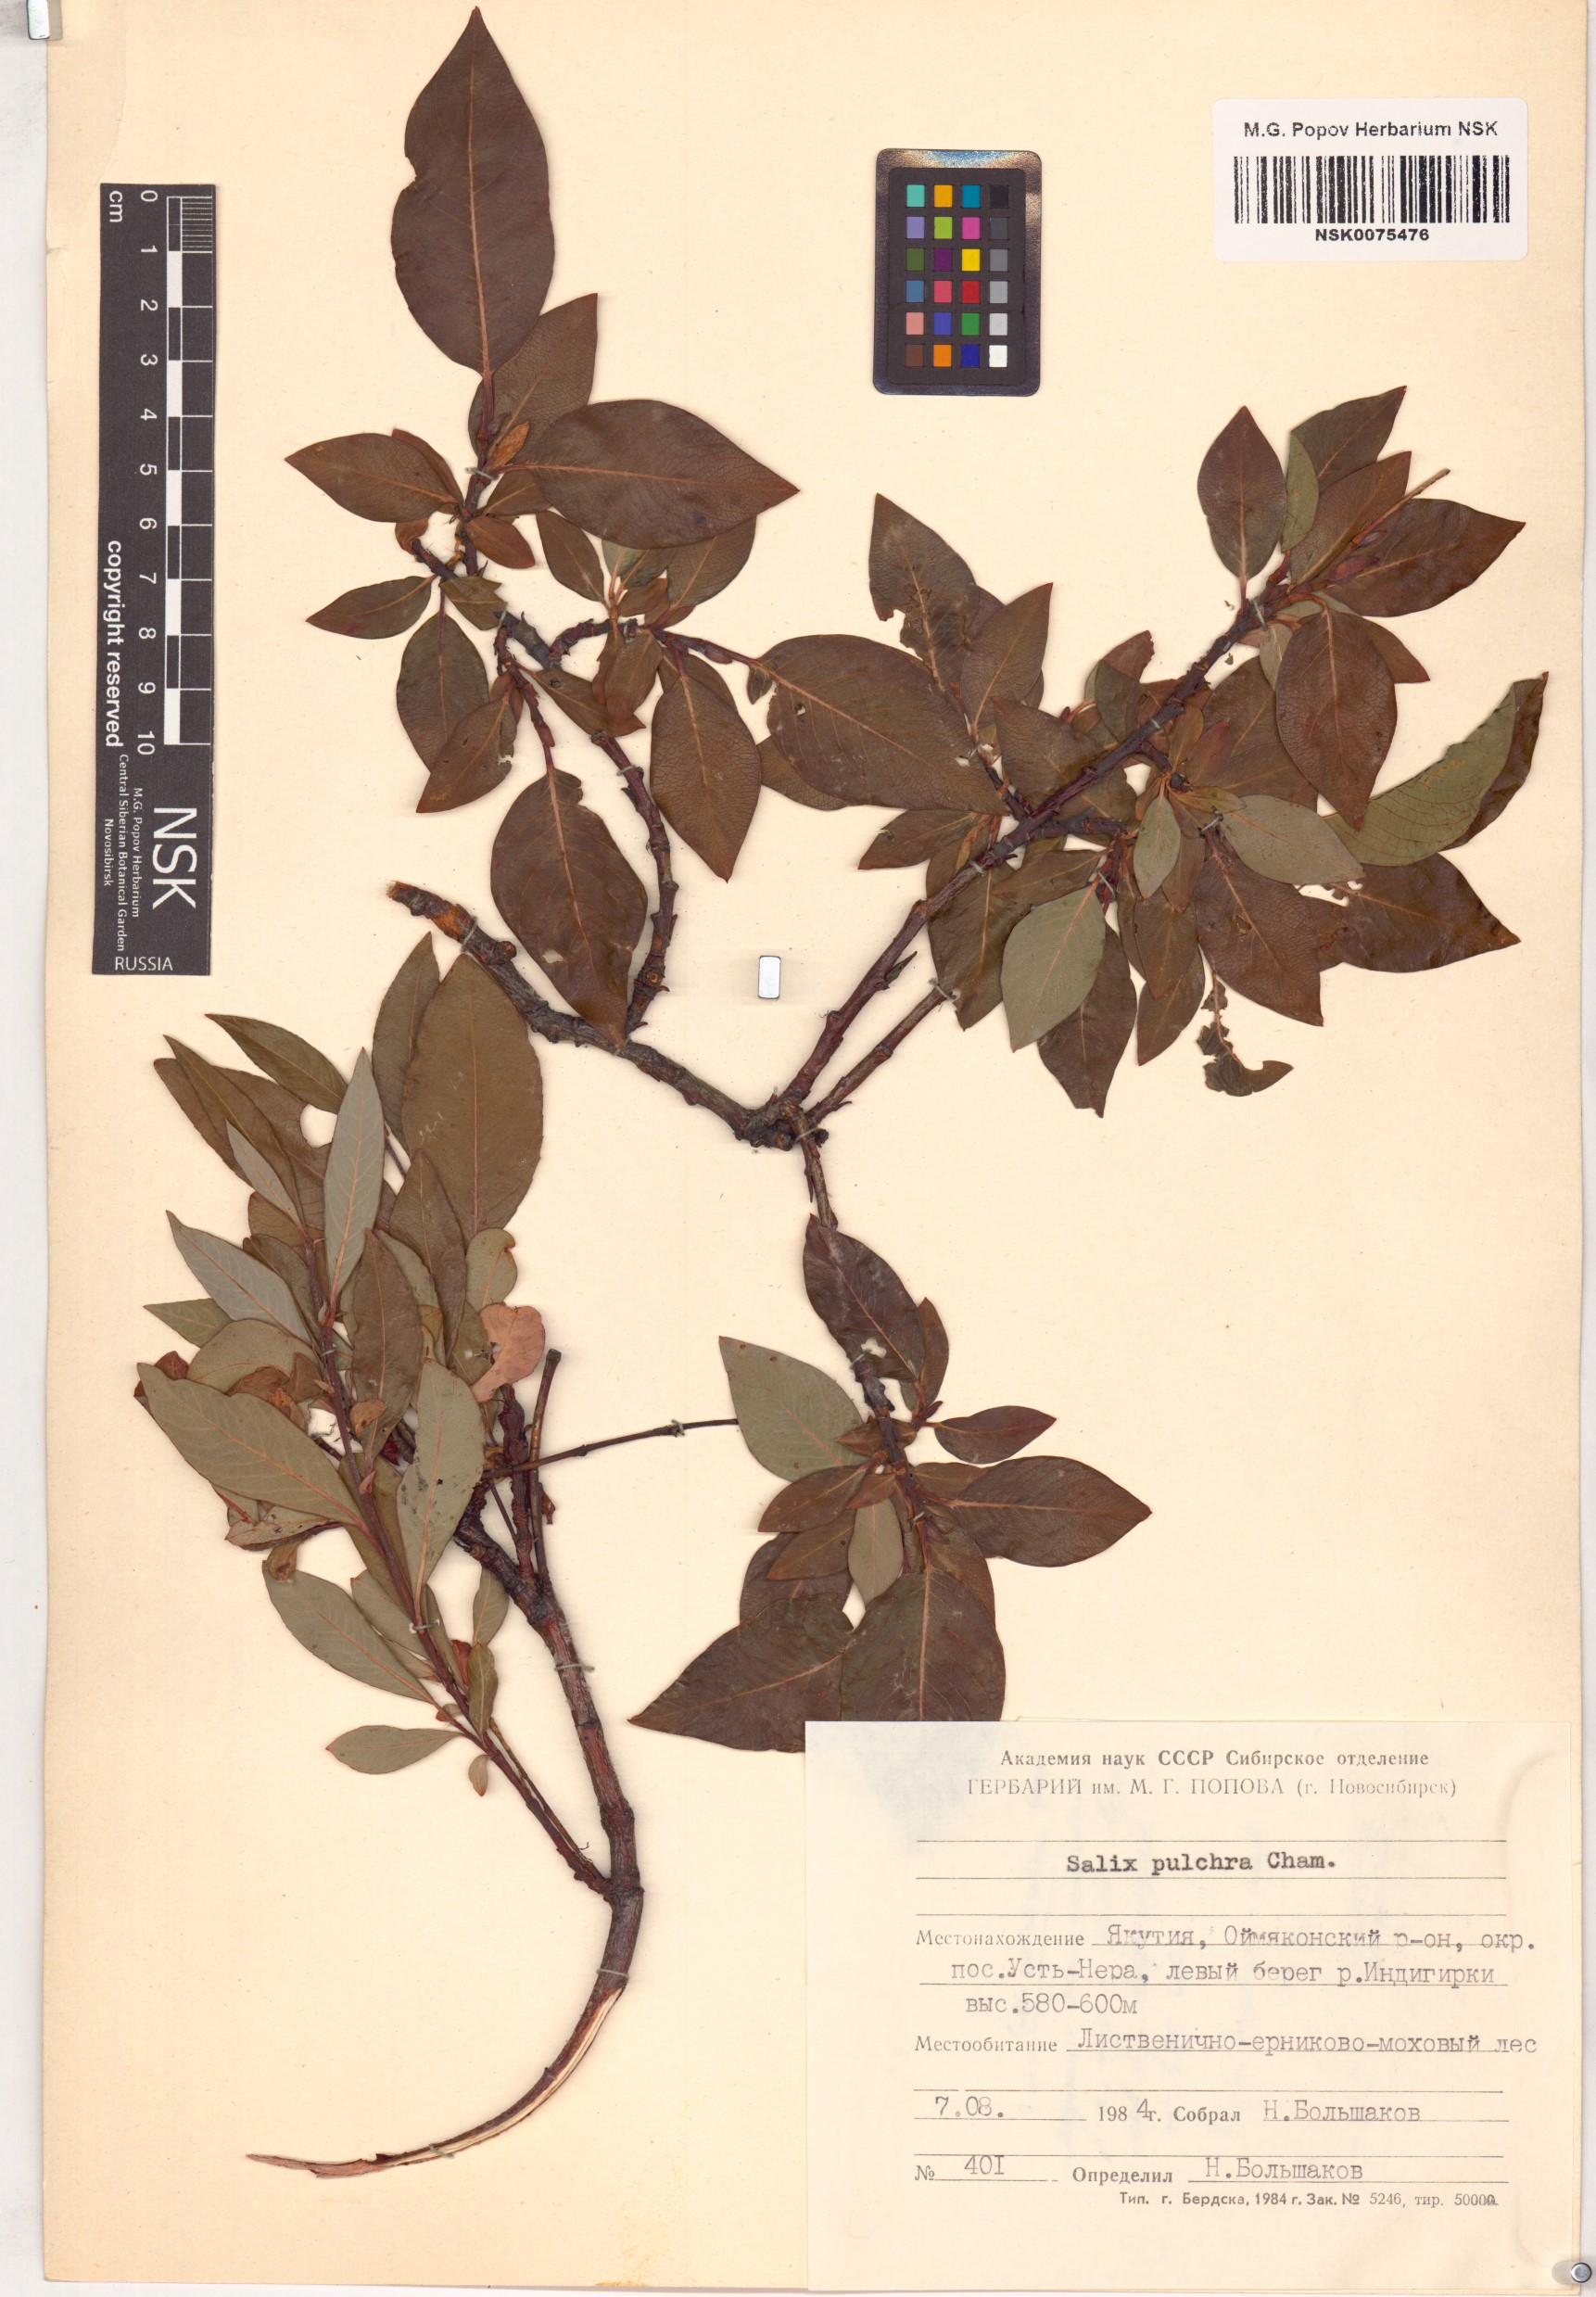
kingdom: Plantae
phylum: Tracheophyta
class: Magnoliopsida
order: Malpighiales
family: Salicaceae
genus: Salix
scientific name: Salix pulchra
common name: Diamond-leaved willow
